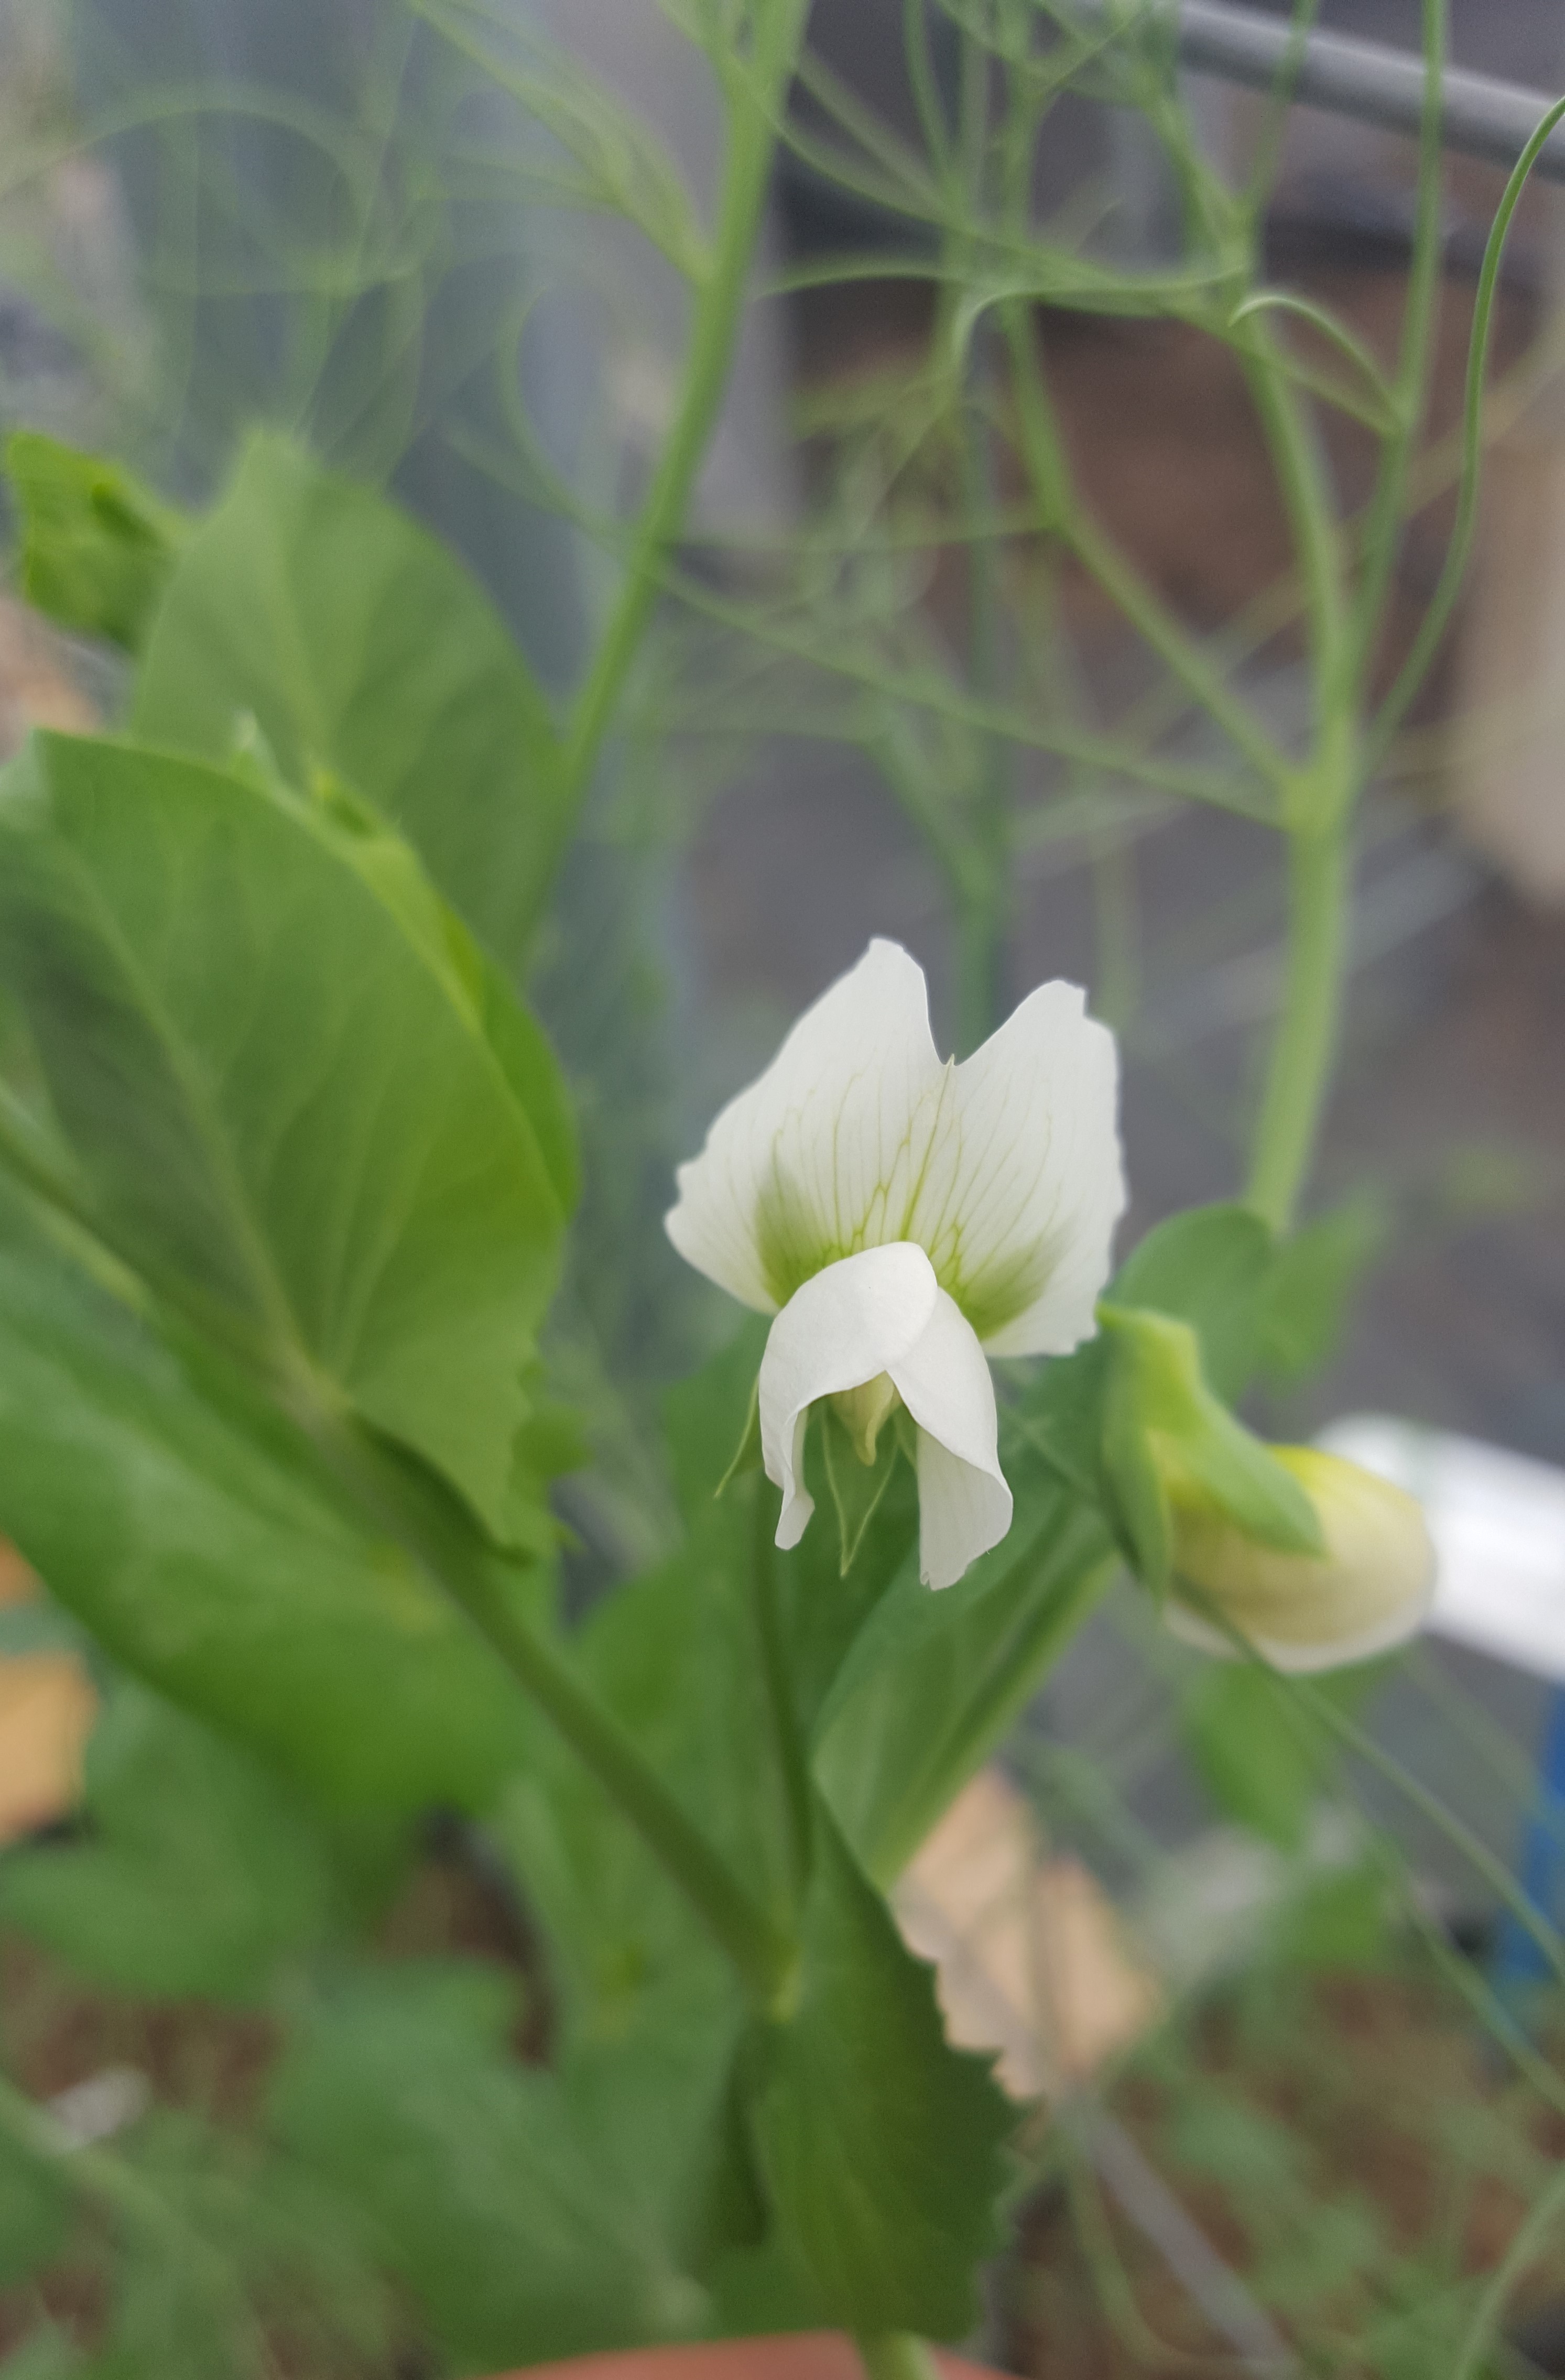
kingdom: Plantae
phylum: Tracheophyta
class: Magnoliopsida
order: Fabales
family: Fabaceae
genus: Lathyrus
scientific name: Lathyrus oleraceus
